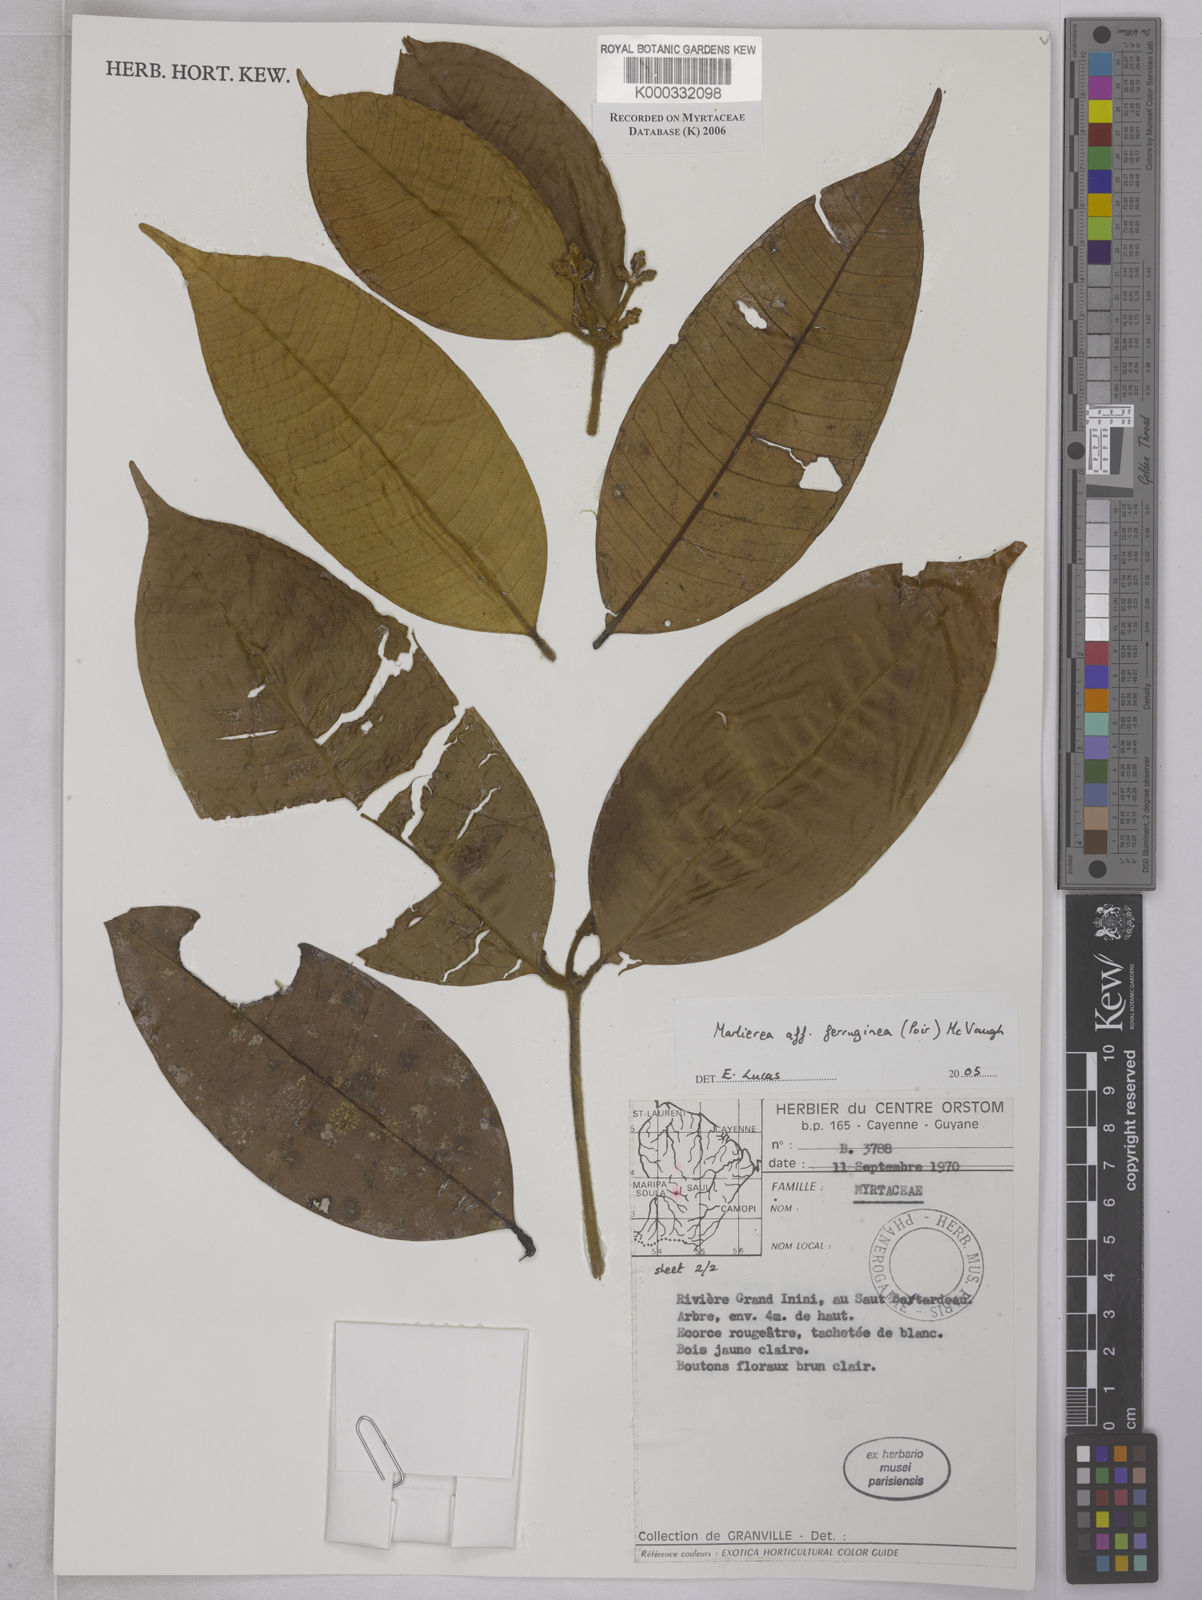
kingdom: Plantae
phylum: Tracheophyta
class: Magnoliopsida
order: Myrtales
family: Myrtaceae
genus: Myrcia
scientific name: Myrcia ferruginea
